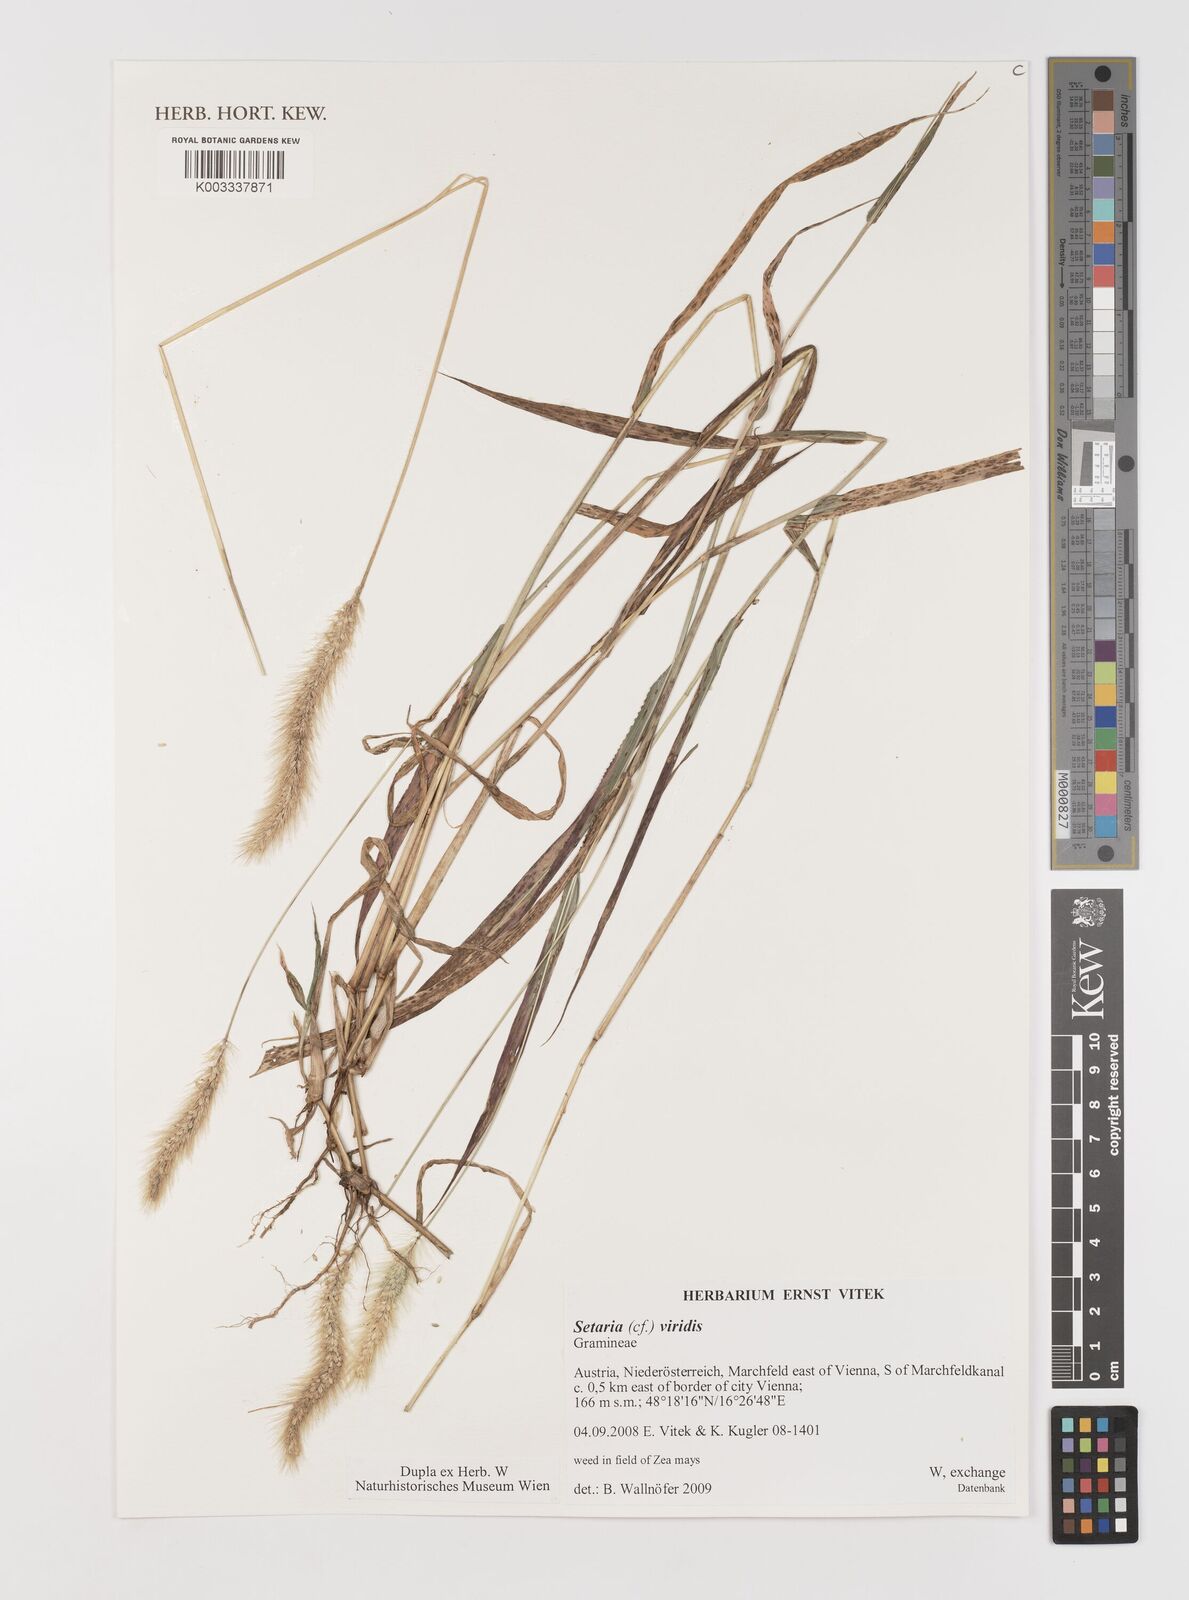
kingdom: Plantae
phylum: Tracheophyta
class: Liliopsida
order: Poales
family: Poaceae
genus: Setaria
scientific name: Setaria viridis
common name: Green bristlegrass
